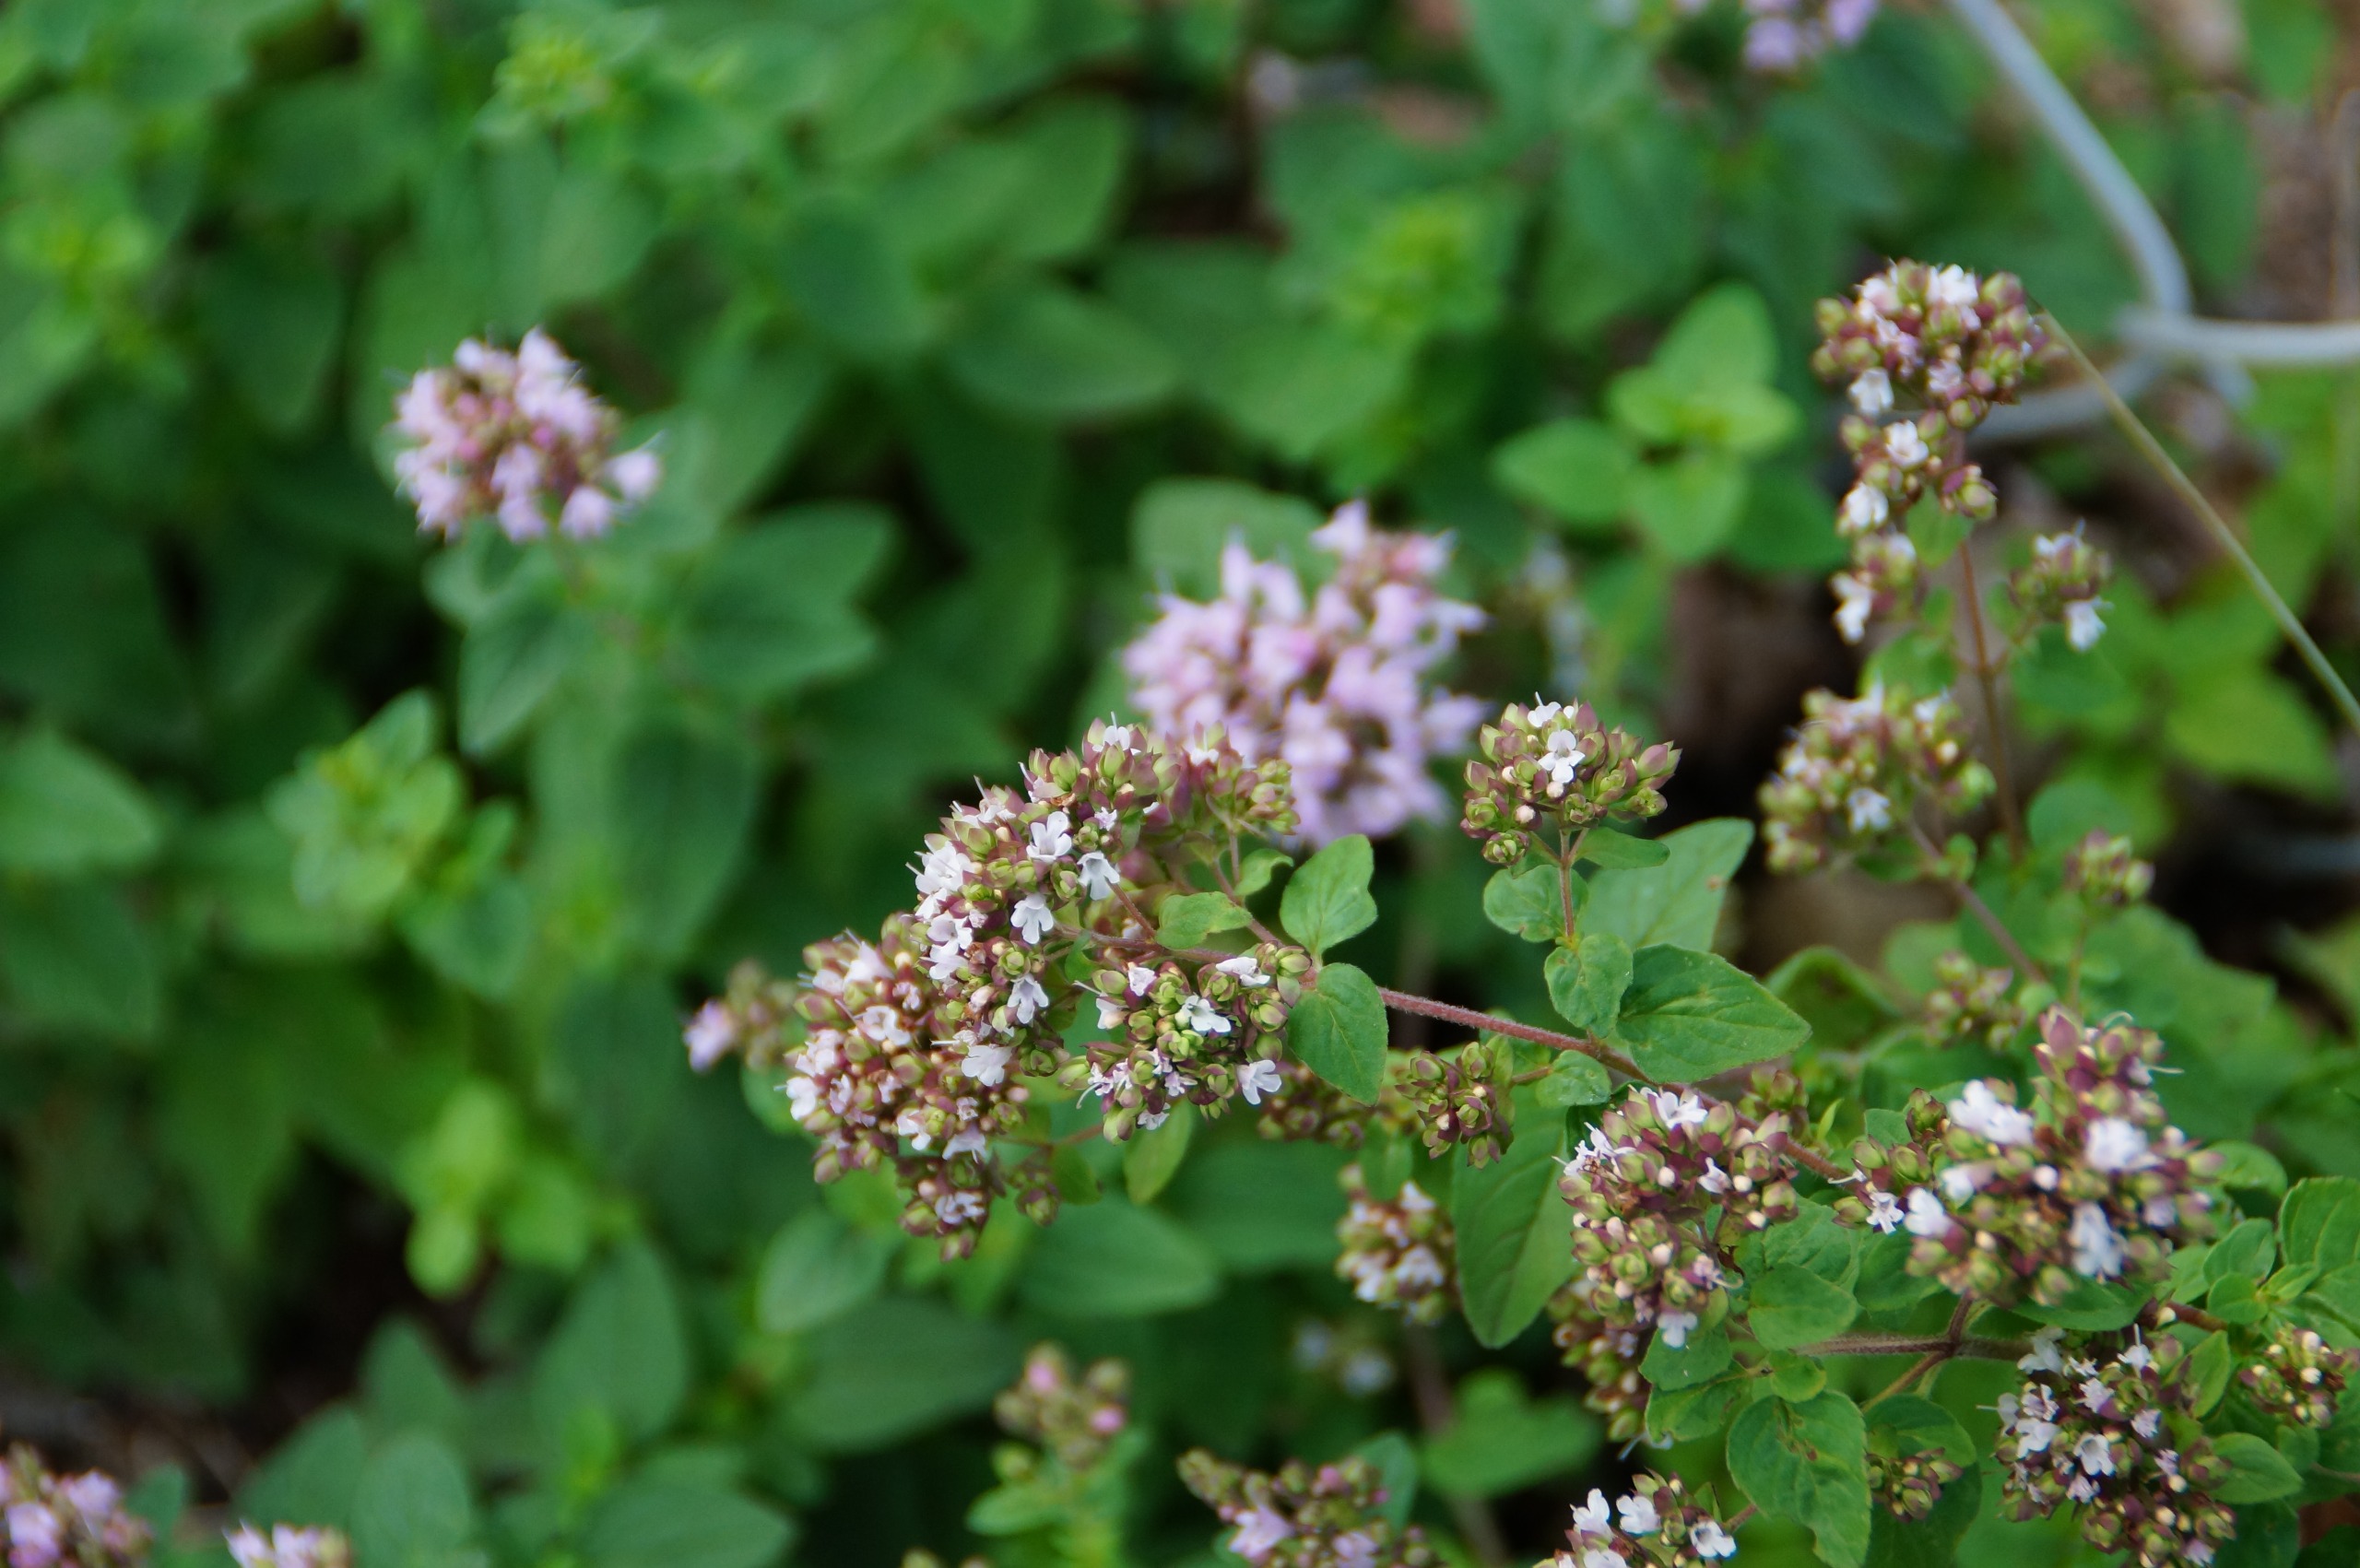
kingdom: Plantae
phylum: Tracheophyta
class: Magnoliopsida
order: Lamiales
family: Lamiaceae
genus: Origanum
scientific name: Origanum vulgare
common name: Merian
